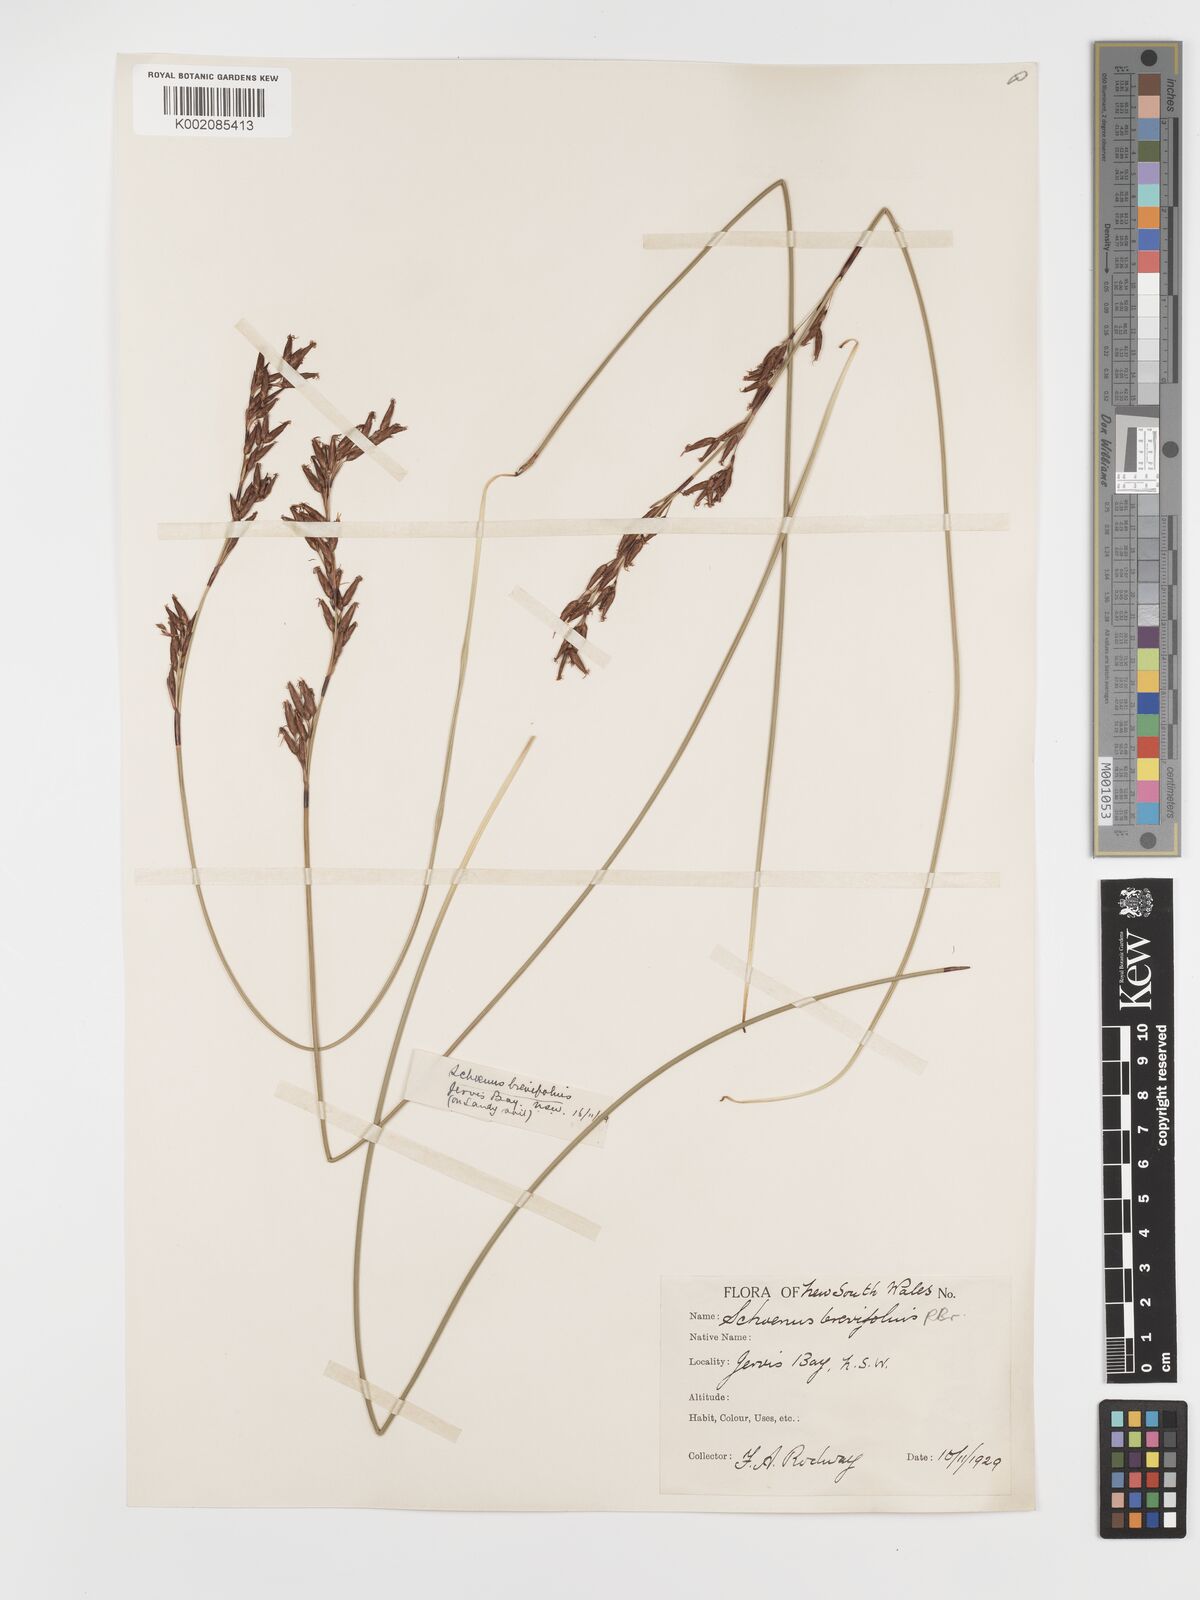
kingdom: Plantae
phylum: Tracheophyta
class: Liliopsida
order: Poales
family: Cyperaceae
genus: Schoenus
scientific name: Schoenus brevifolius
